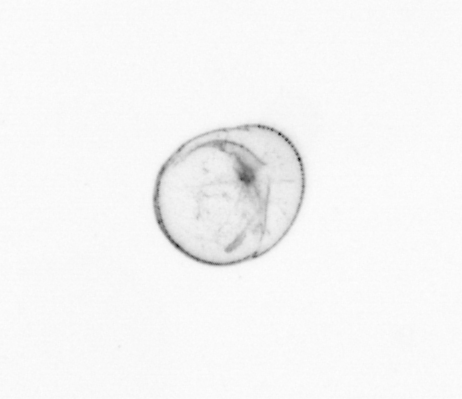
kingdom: Chromista
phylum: Myzozoa
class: Dinophyceae
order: Noctilucales
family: Noctilucaceae
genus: Noctiluca
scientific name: Noctiluca scintillans
